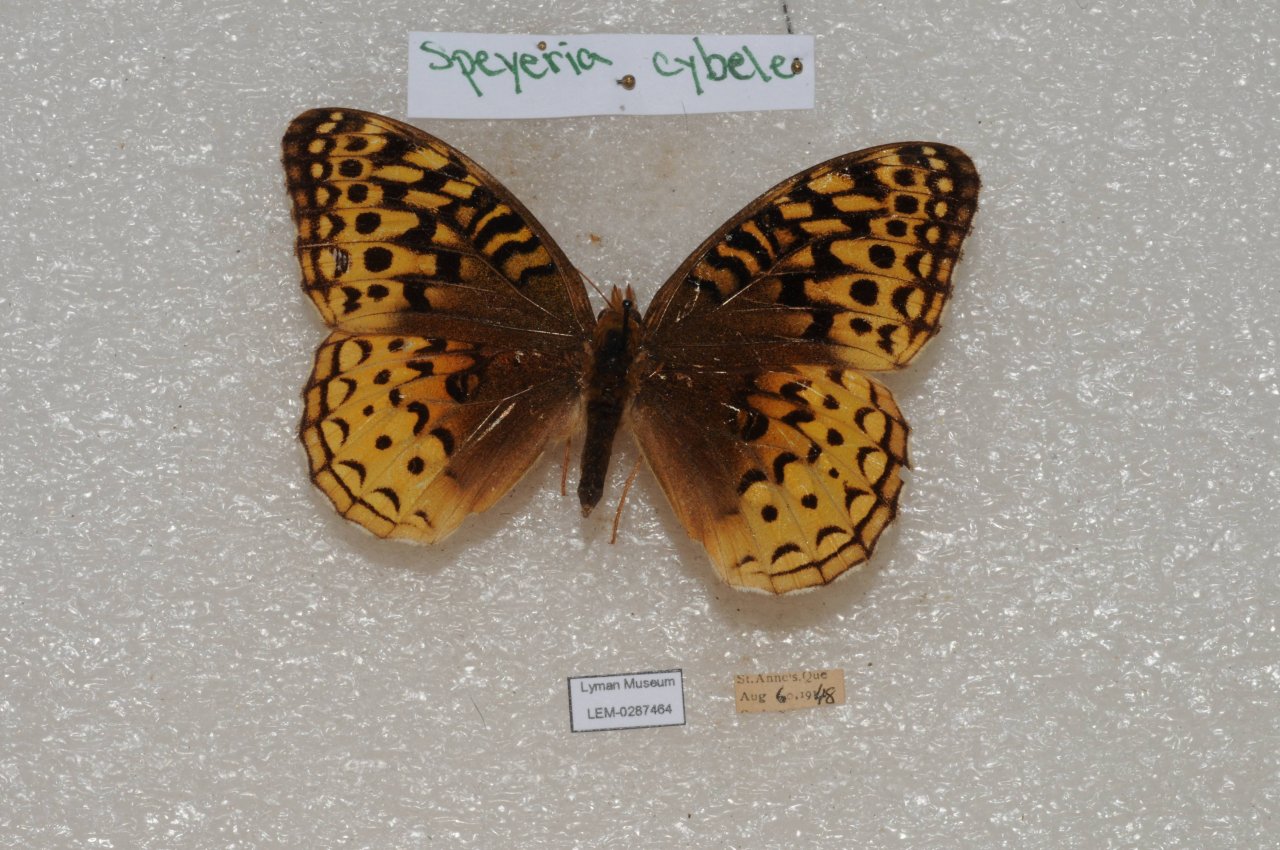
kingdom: Animalia
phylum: Arthropoda
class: Insecta
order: Lepidoptera
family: Nymphalidae
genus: Speyeria
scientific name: Speyeria cybele
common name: Great Spangled Fritillary
